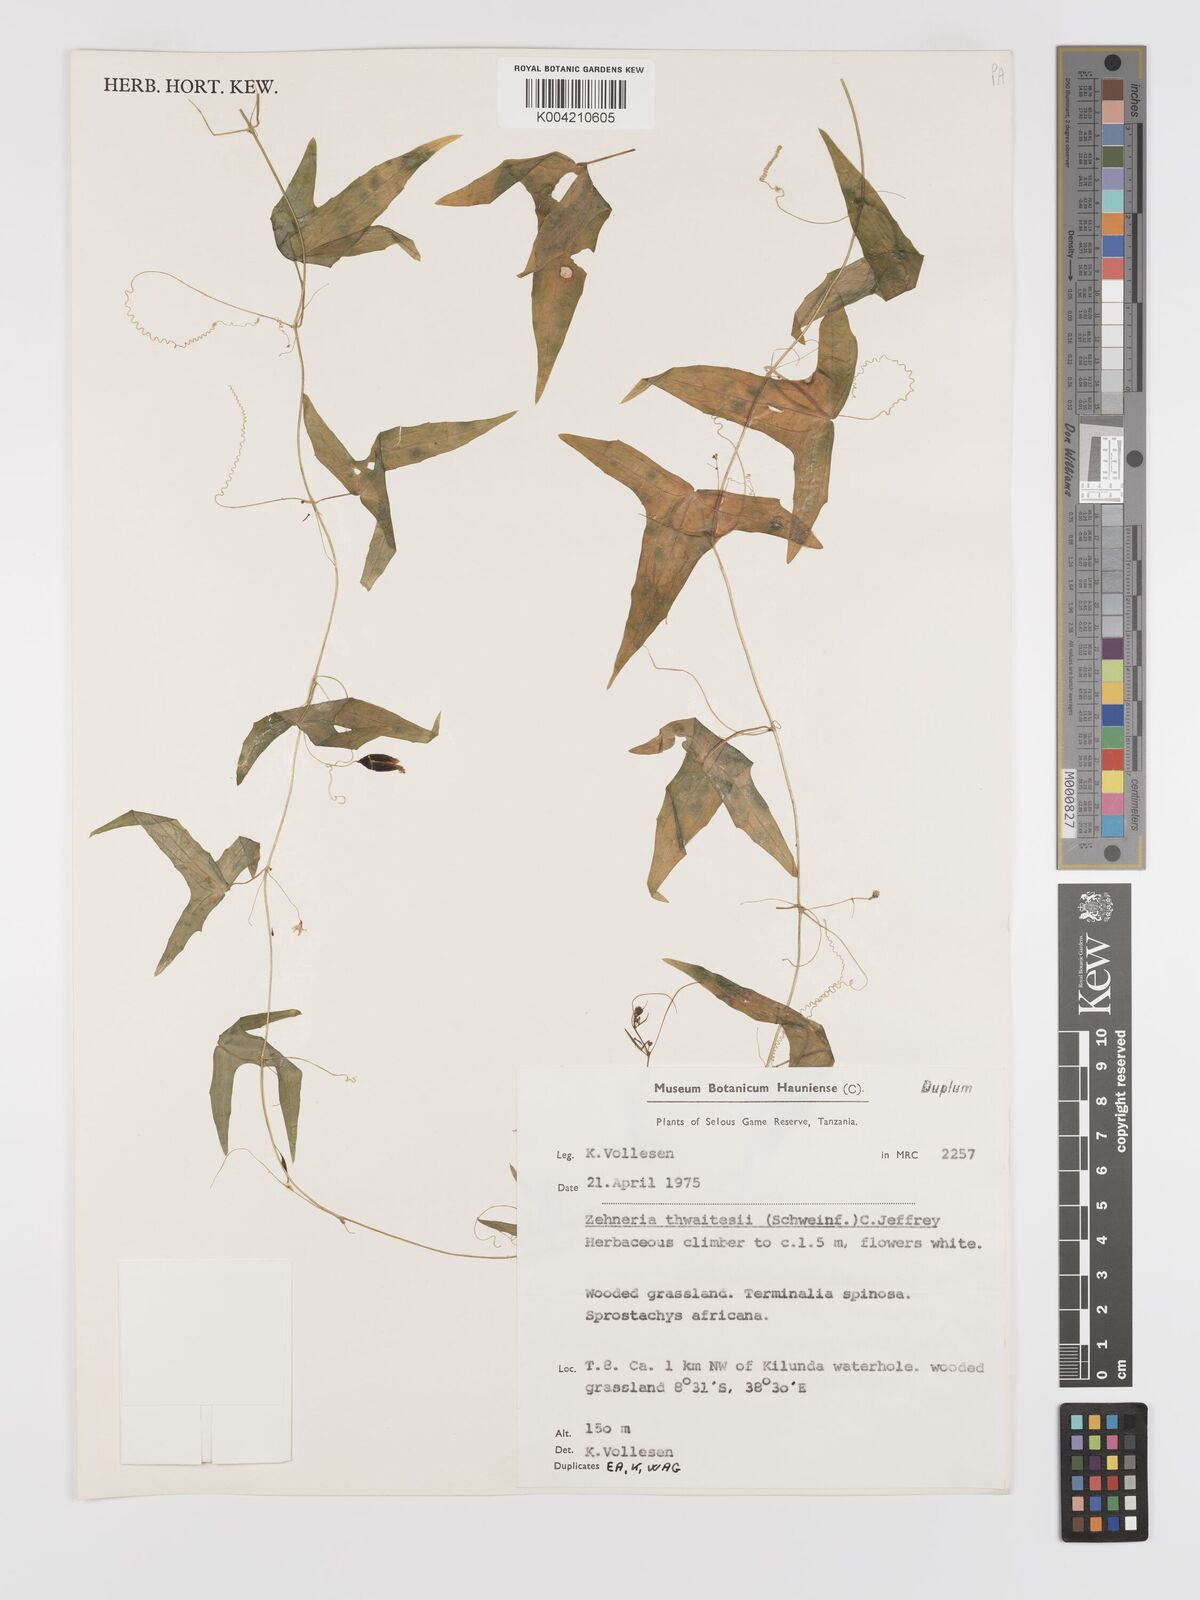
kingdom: Plantae
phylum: Tracheophyta
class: Magnoliopsida
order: Cucurbitales
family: Cucurbitaceae
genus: Zehneria
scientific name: Zehneria thwaitesii
